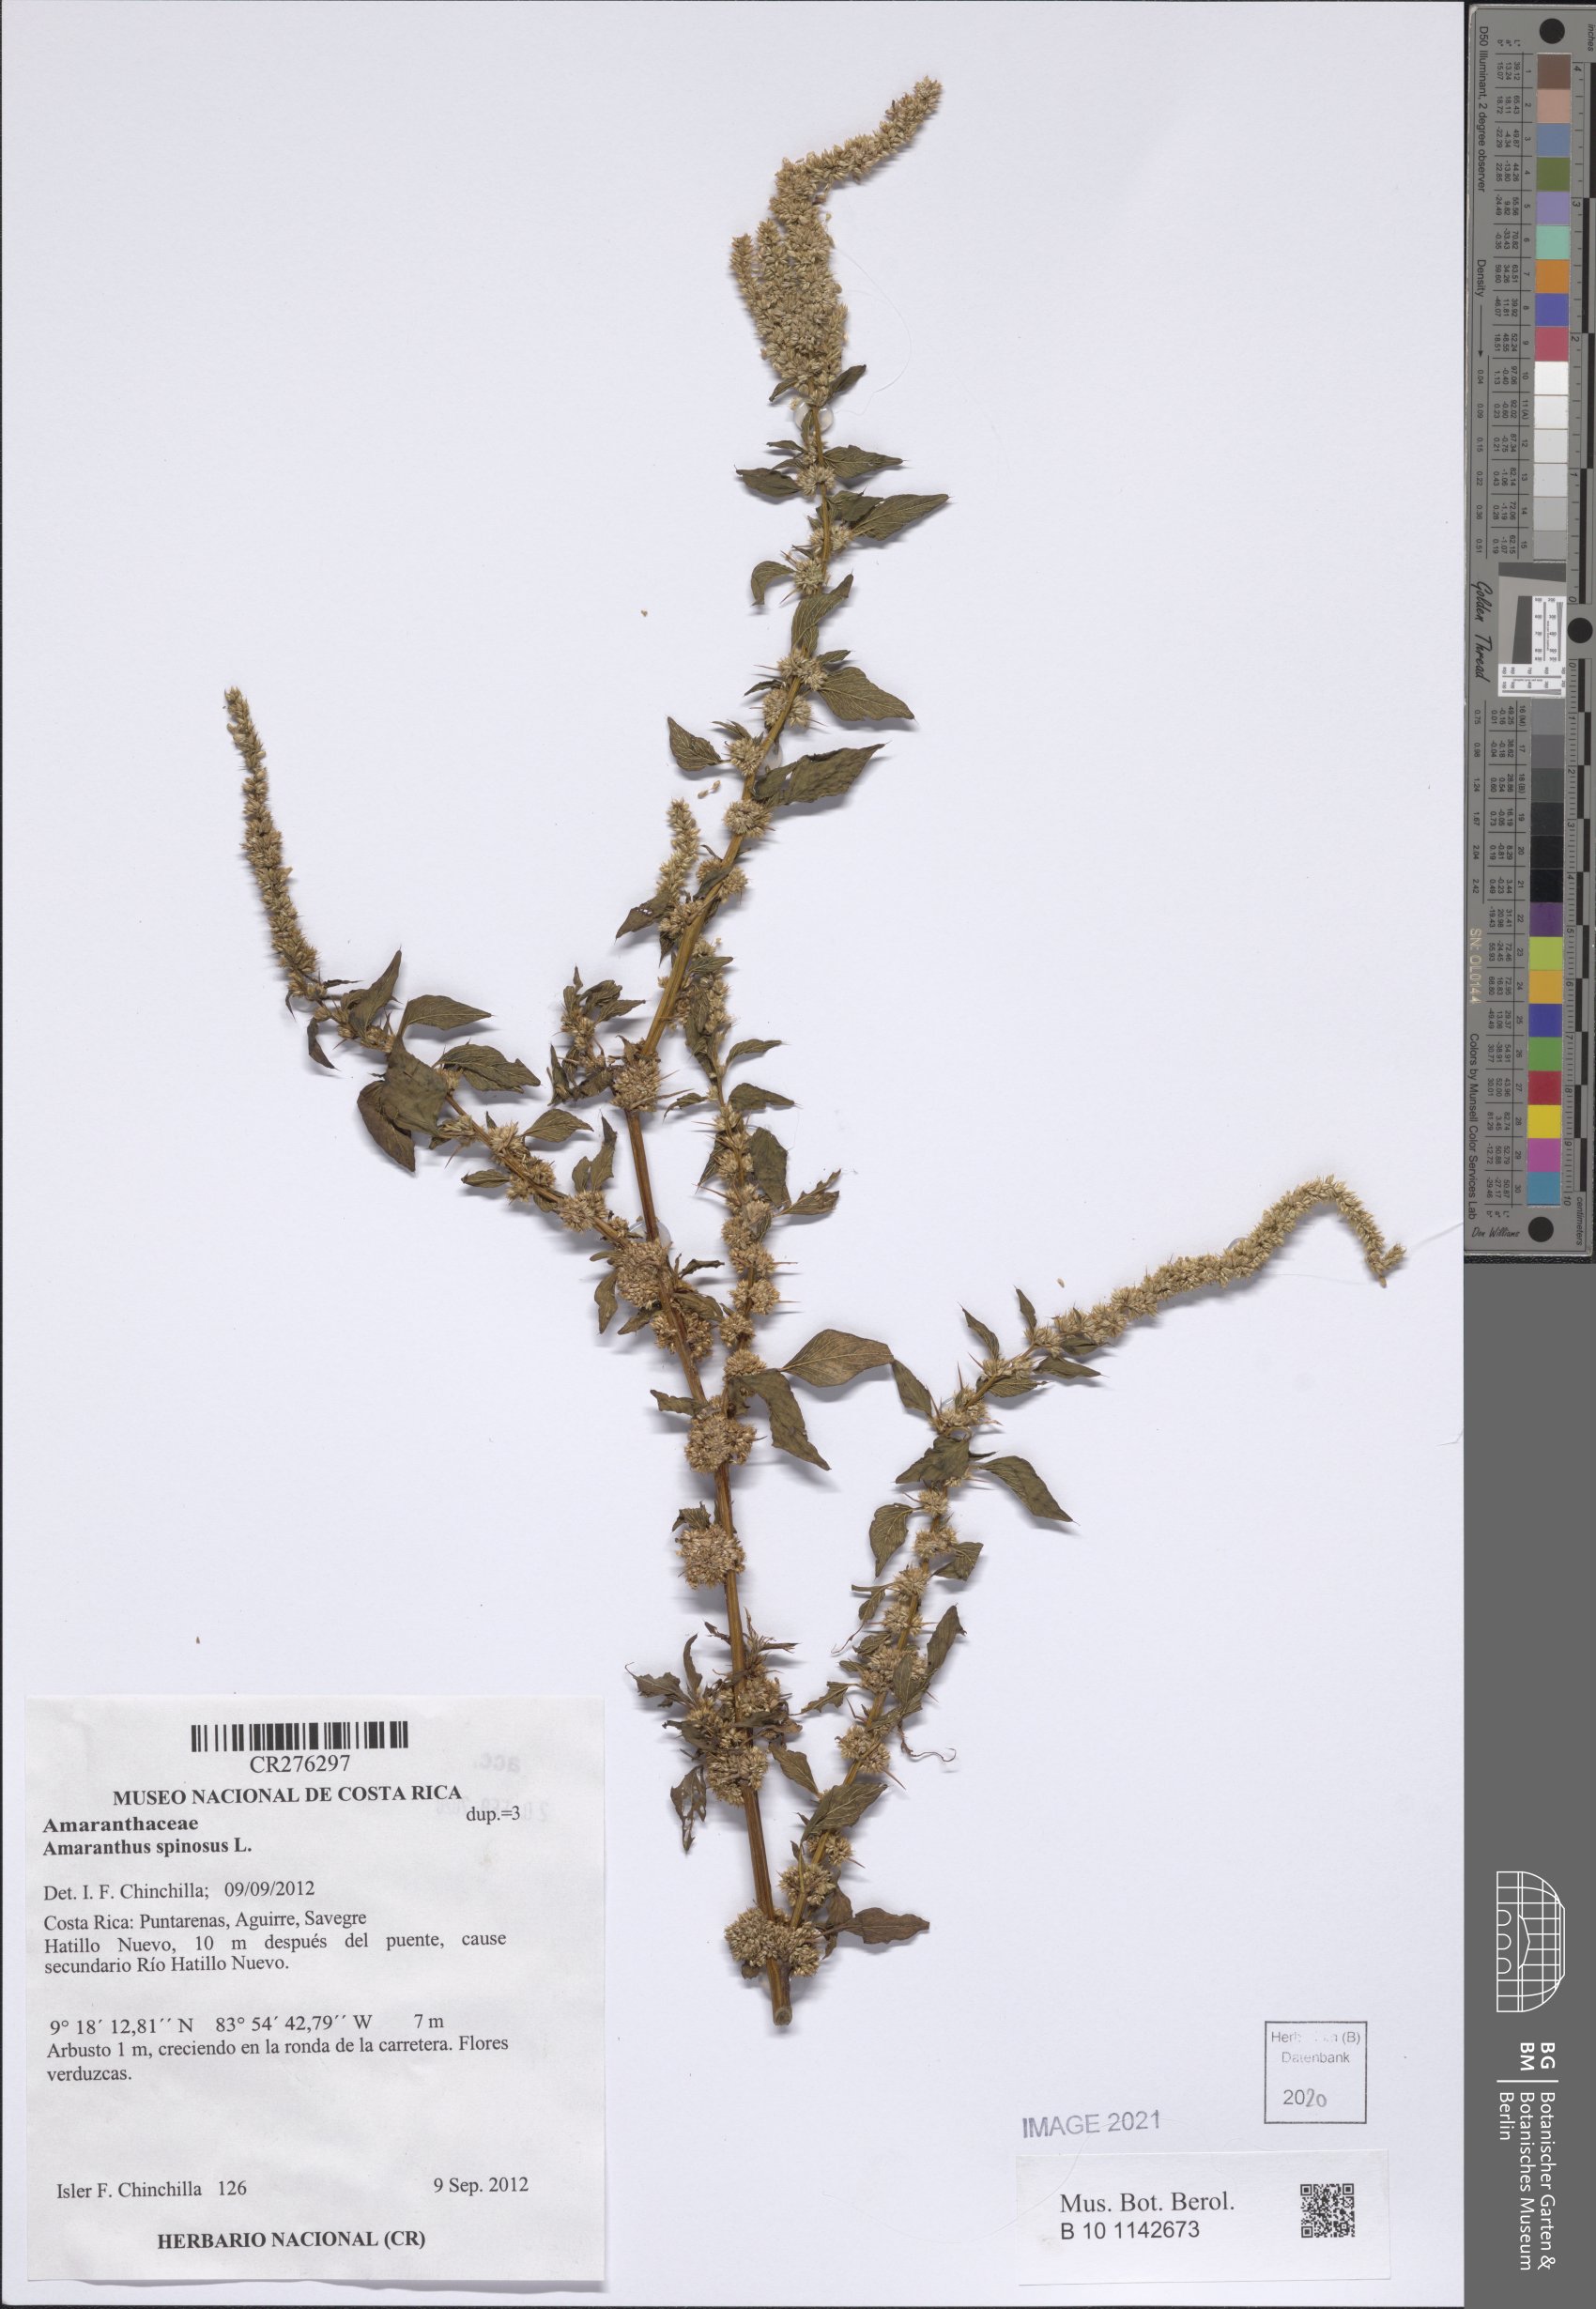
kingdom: Plantae
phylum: Tracheophyta
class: Magnoliopsida
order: Caryophyllales
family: Amaranthaceae
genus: Amaranthus
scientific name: Amaranthus spinosus
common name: Spiny amaranth
